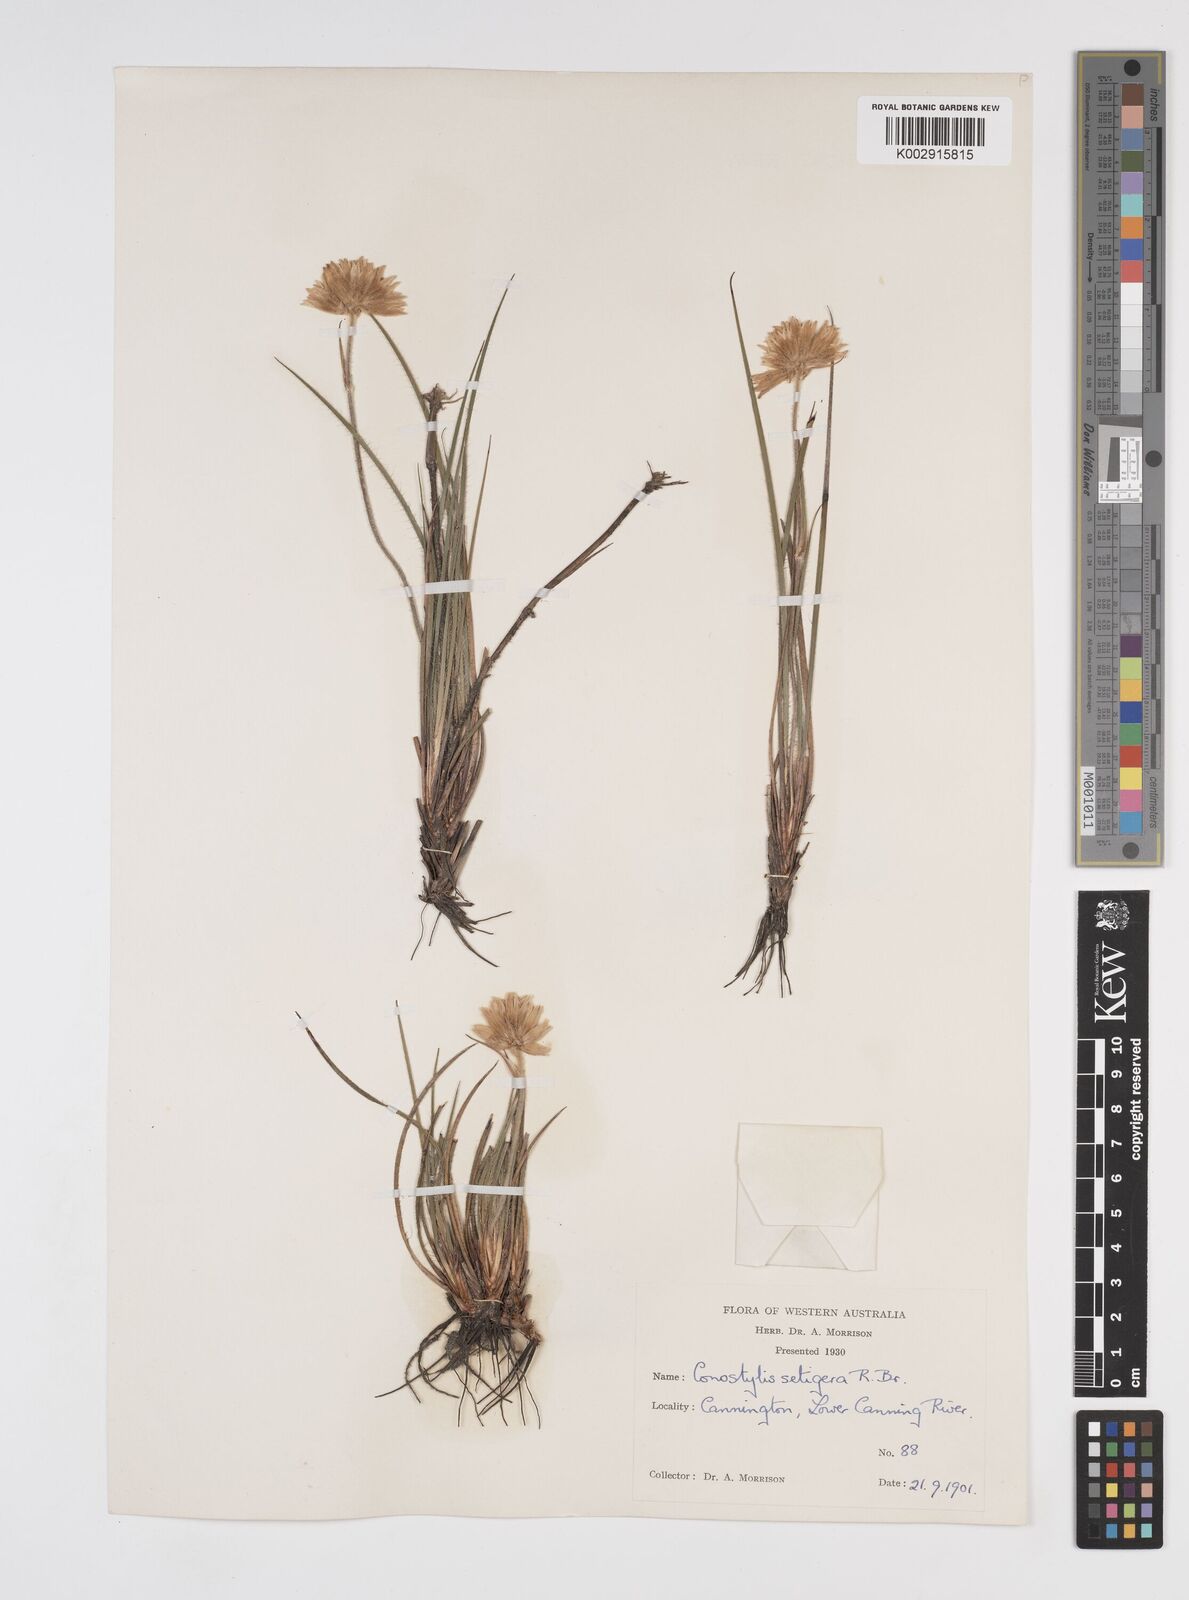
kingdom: Plantae
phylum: Tracheophyta
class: Liliopsida
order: Commelinales
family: Haemodoraceae
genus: Conostylis
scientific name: Conostylis setigera
